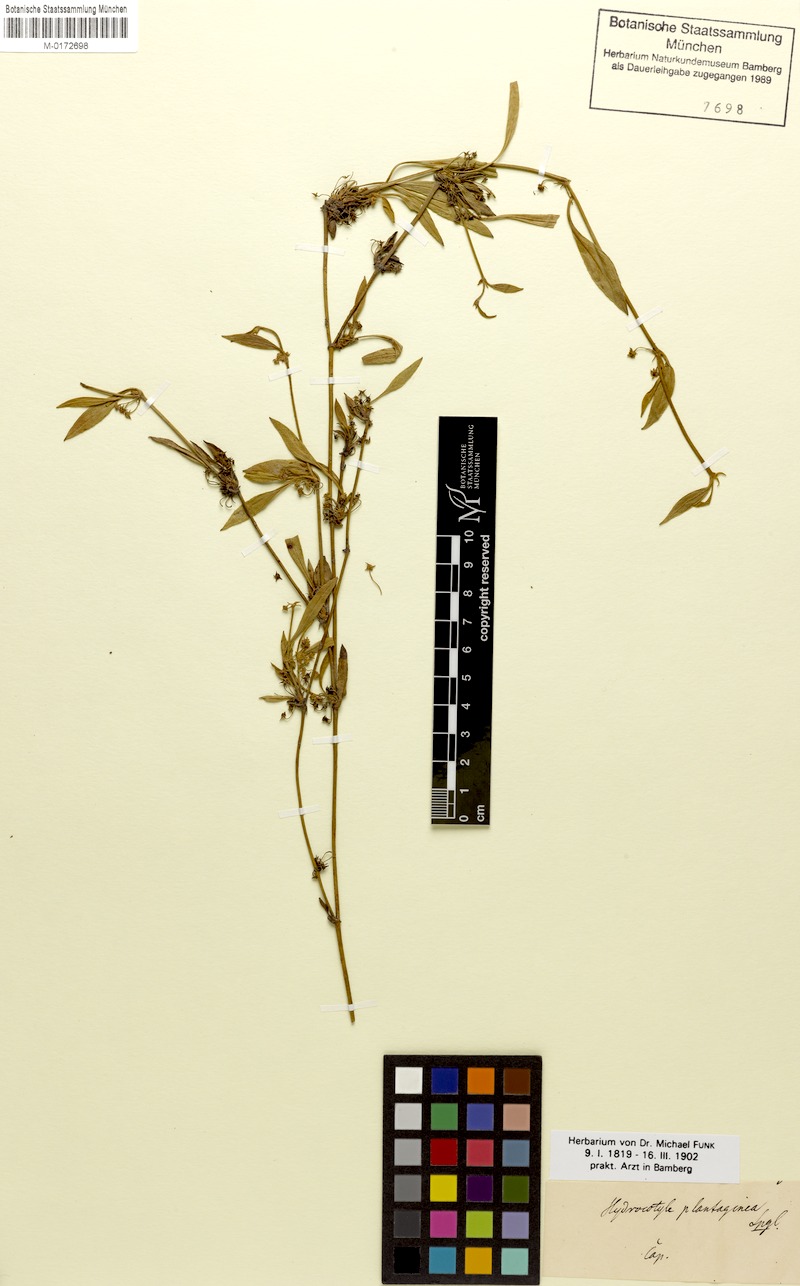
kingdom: Plantae
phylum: Tracheophyta
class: Magnoliopsida
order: Apiales
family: Apiaceae
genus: Centella
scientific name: Centella glabrata
